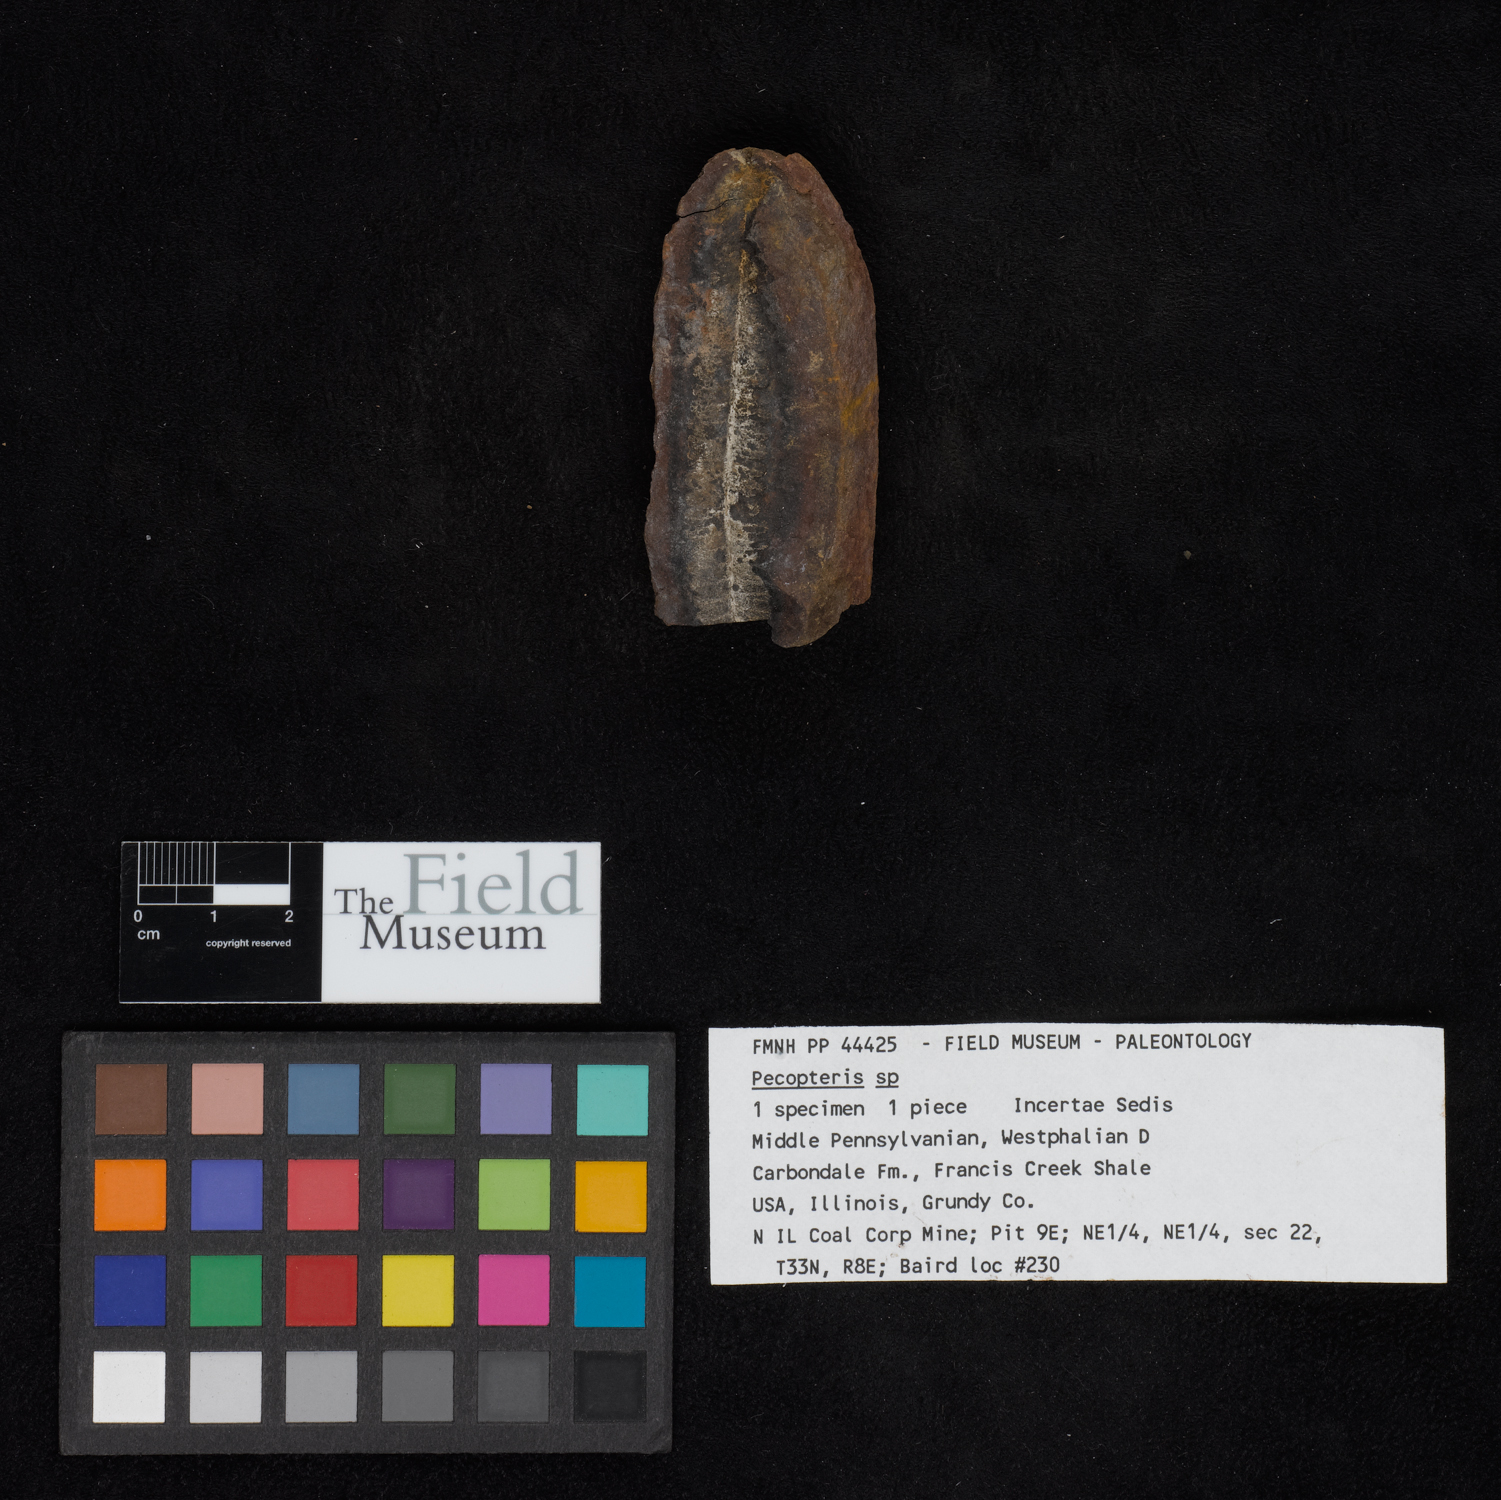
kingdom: Plantae
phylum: Tracheophyta
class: Polypodiopsida
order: Marattiales
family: Asterothecaceae
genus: Pecopteris
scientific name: Pecopteris
